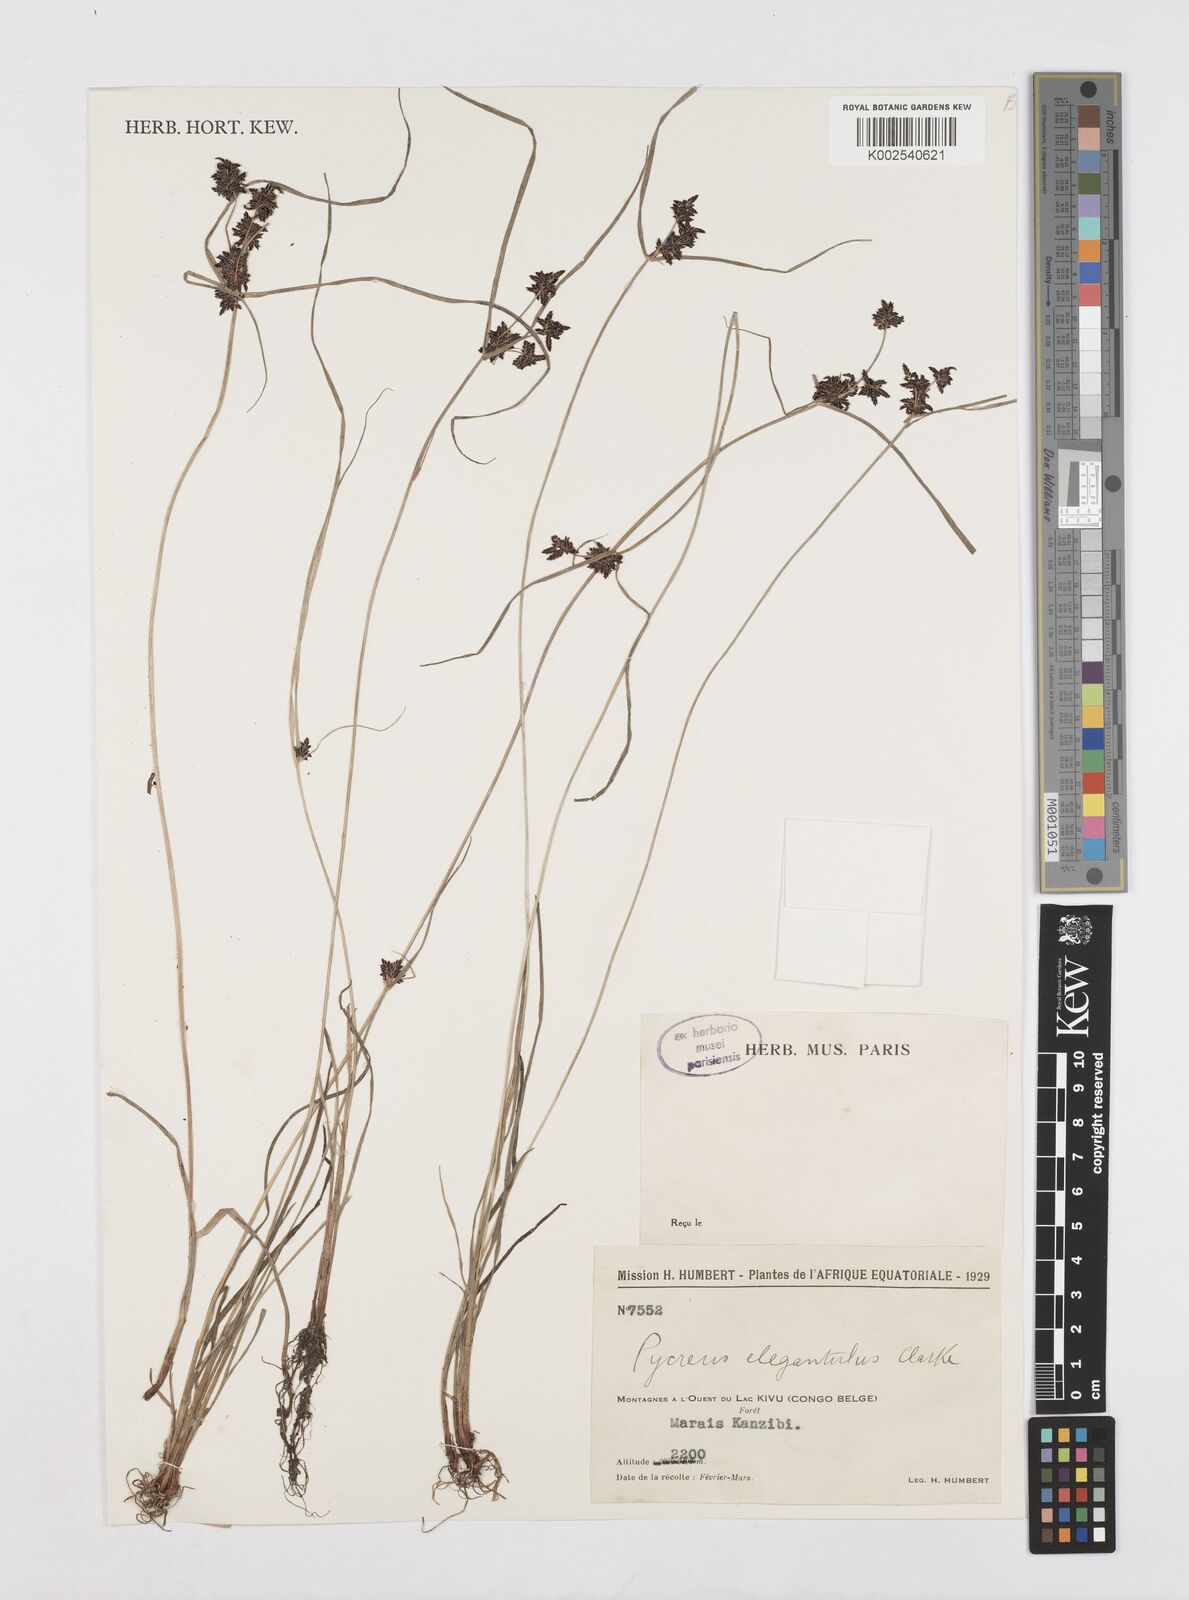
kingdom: Plantae
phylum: Tracheophyta
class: Liliopsida
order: Poales
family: Cyperaceae
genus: Cyperus
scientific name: Cyperus elegantulus
